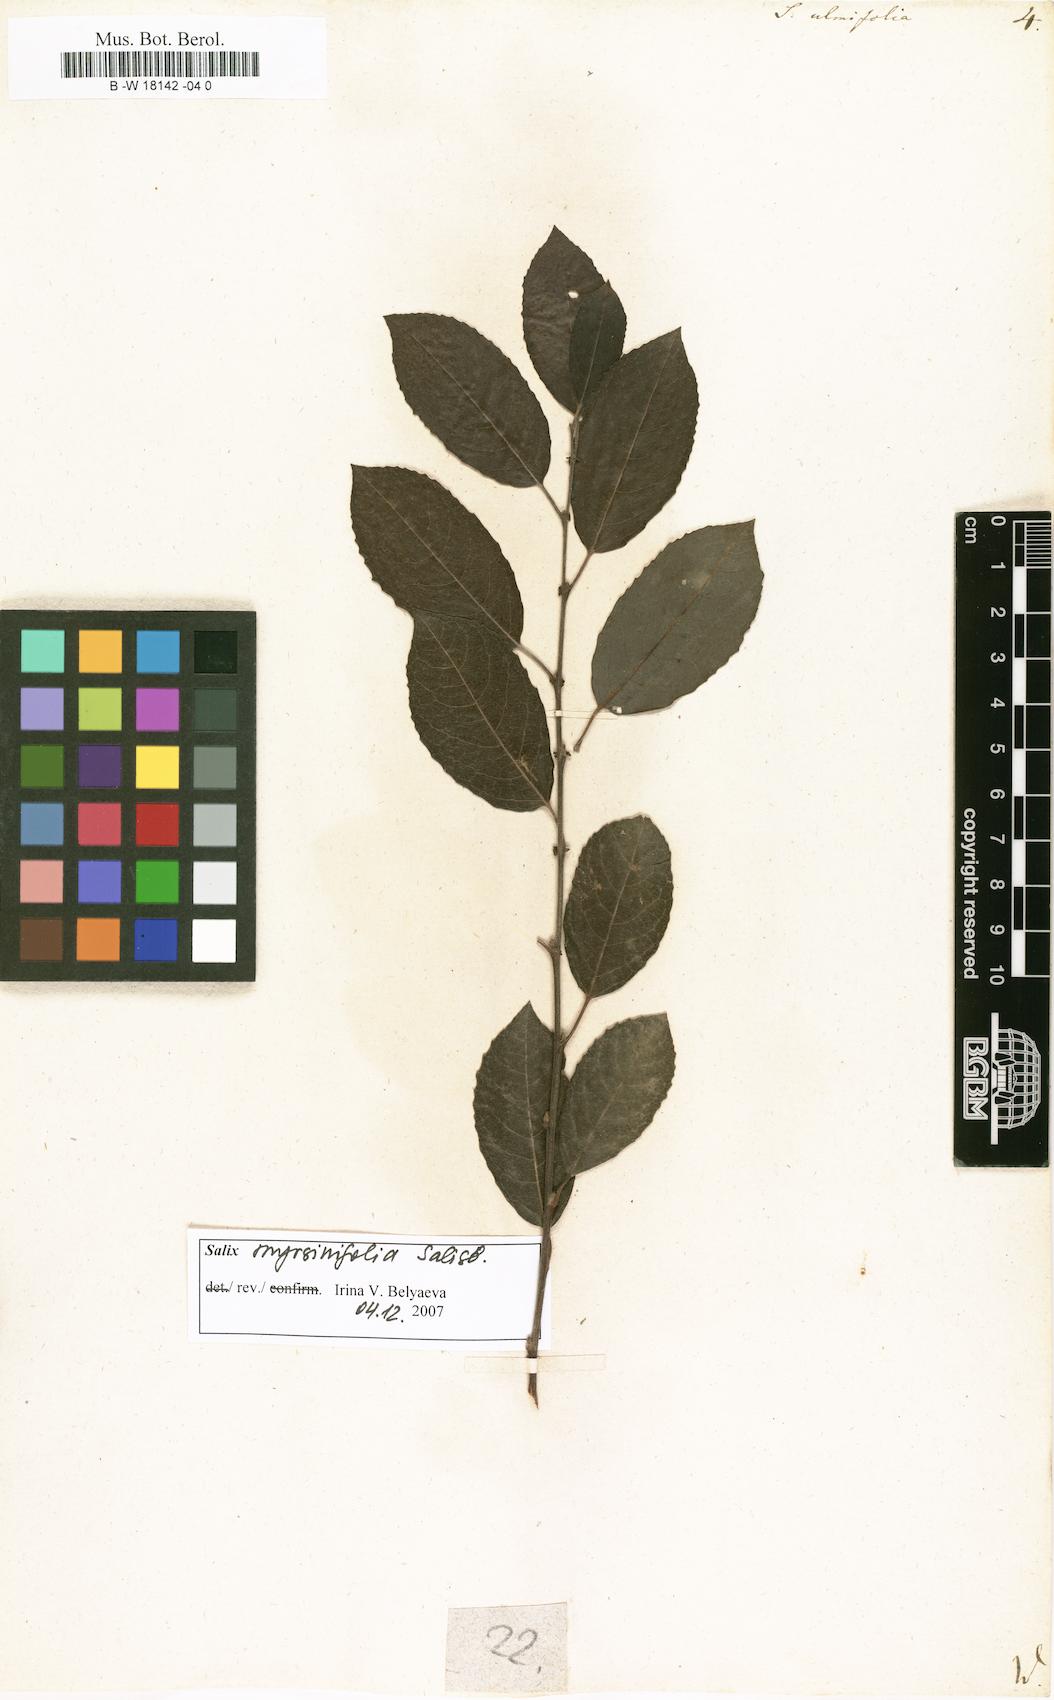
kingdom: Plantae
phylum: Tracheophyta
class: Magnoliopsida
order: Malpighiales
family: Salicaceae
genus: Salix
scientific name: Salix ulmifolia
